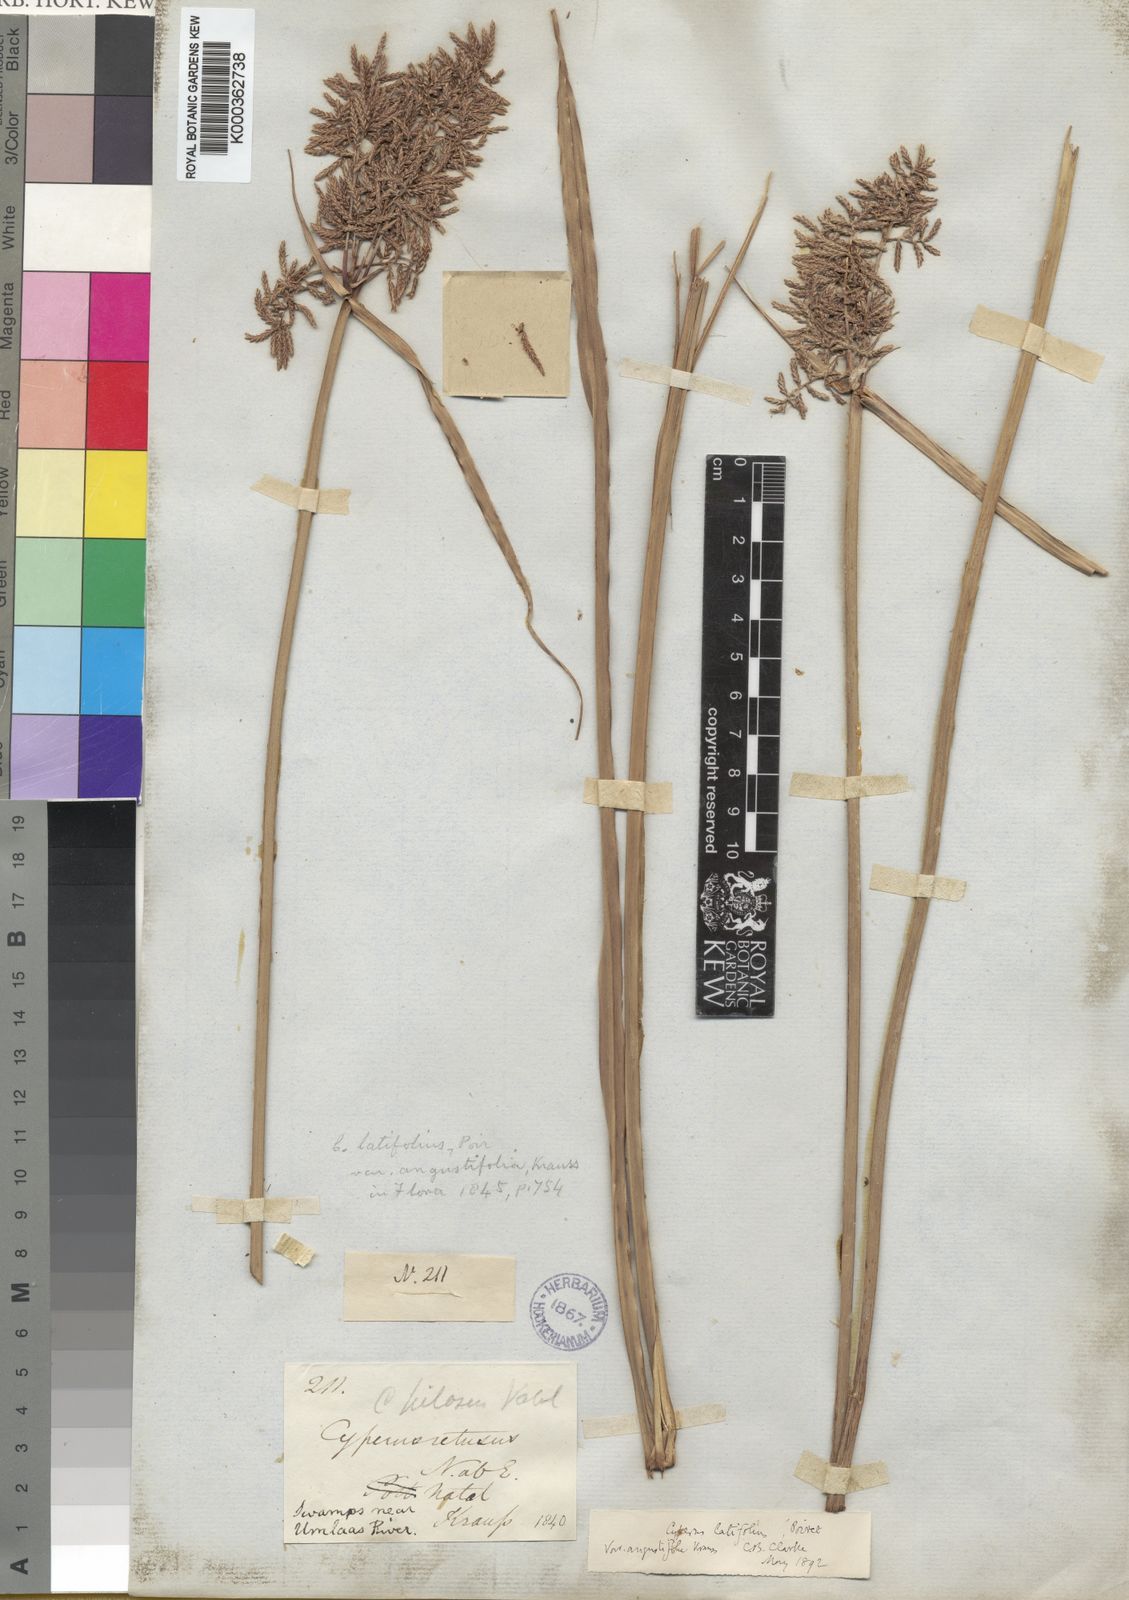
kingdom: Plantae
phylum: Tracheophyta
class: Liliopsida
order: Poales
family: Cyperaceae
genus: Cyperus
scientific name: Cyperus latifolius
